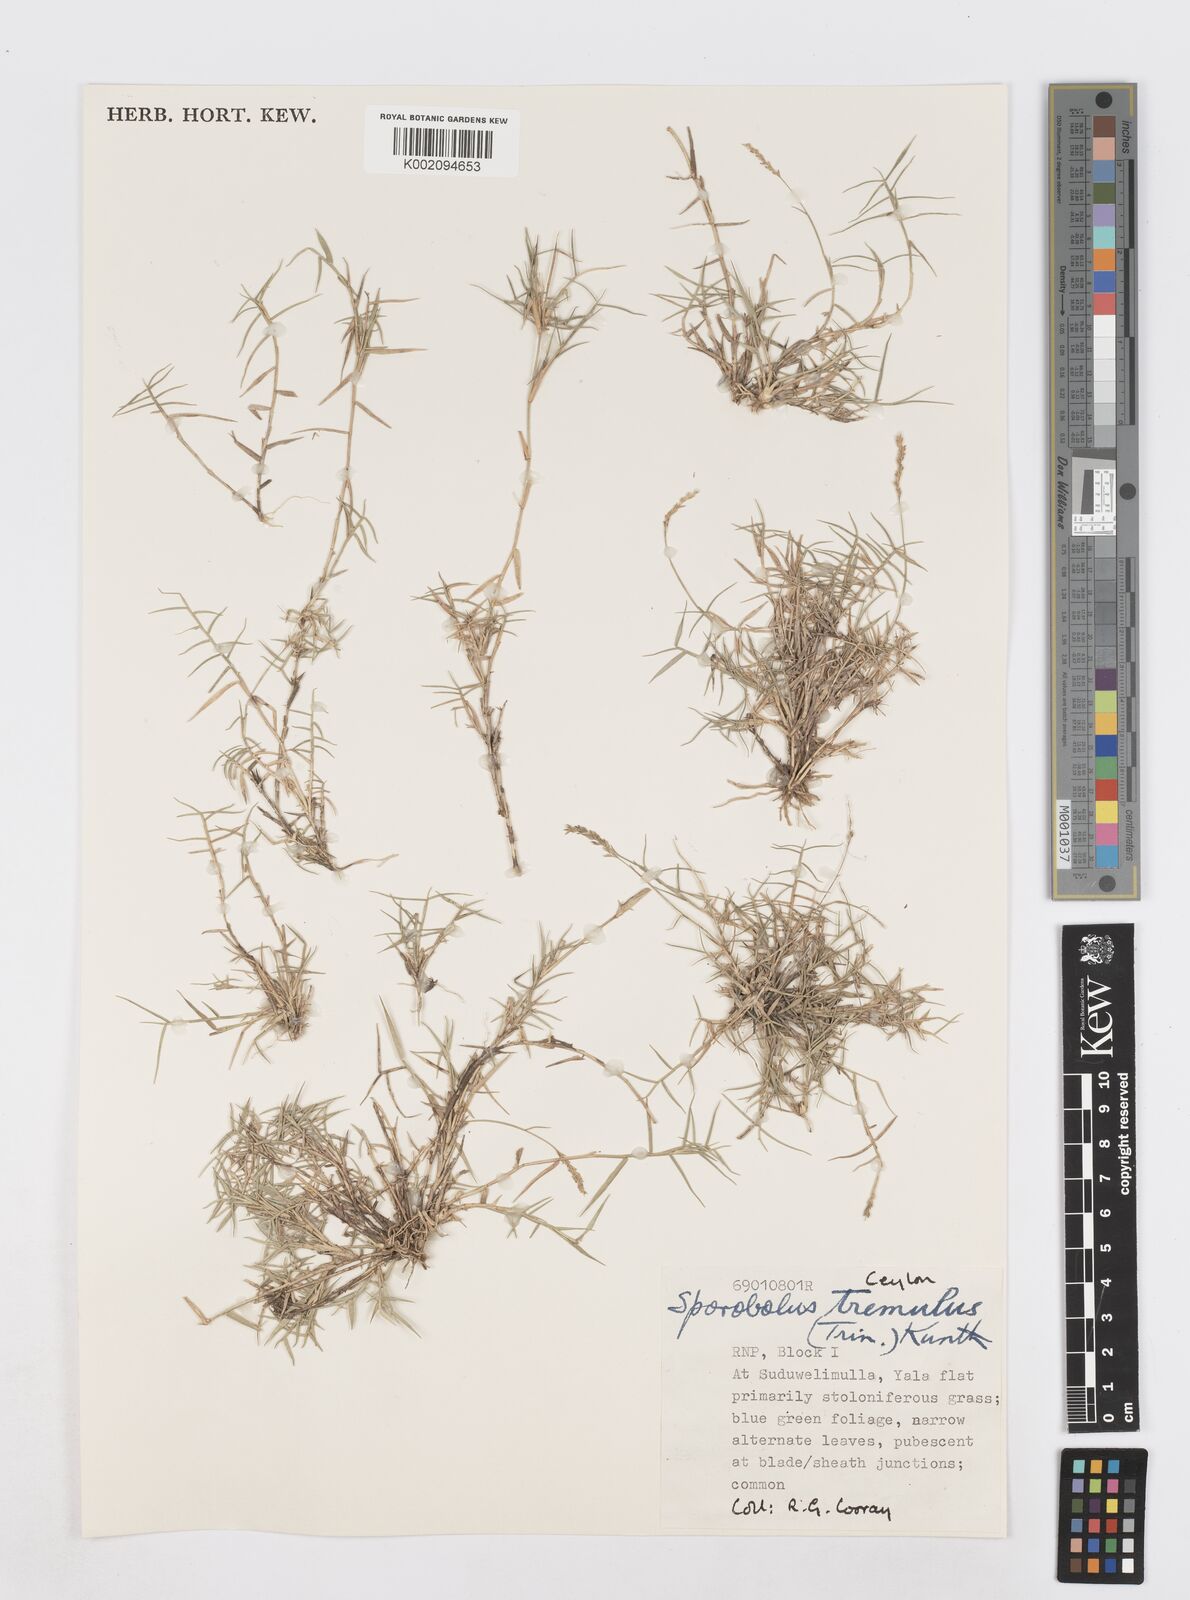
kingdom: Plantae
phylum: Tracheophyta
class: Liliopsida
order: Poales
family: Poaceae
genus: Sporobolus
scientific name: Sporobolus virginicus
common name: Beach dropseed
